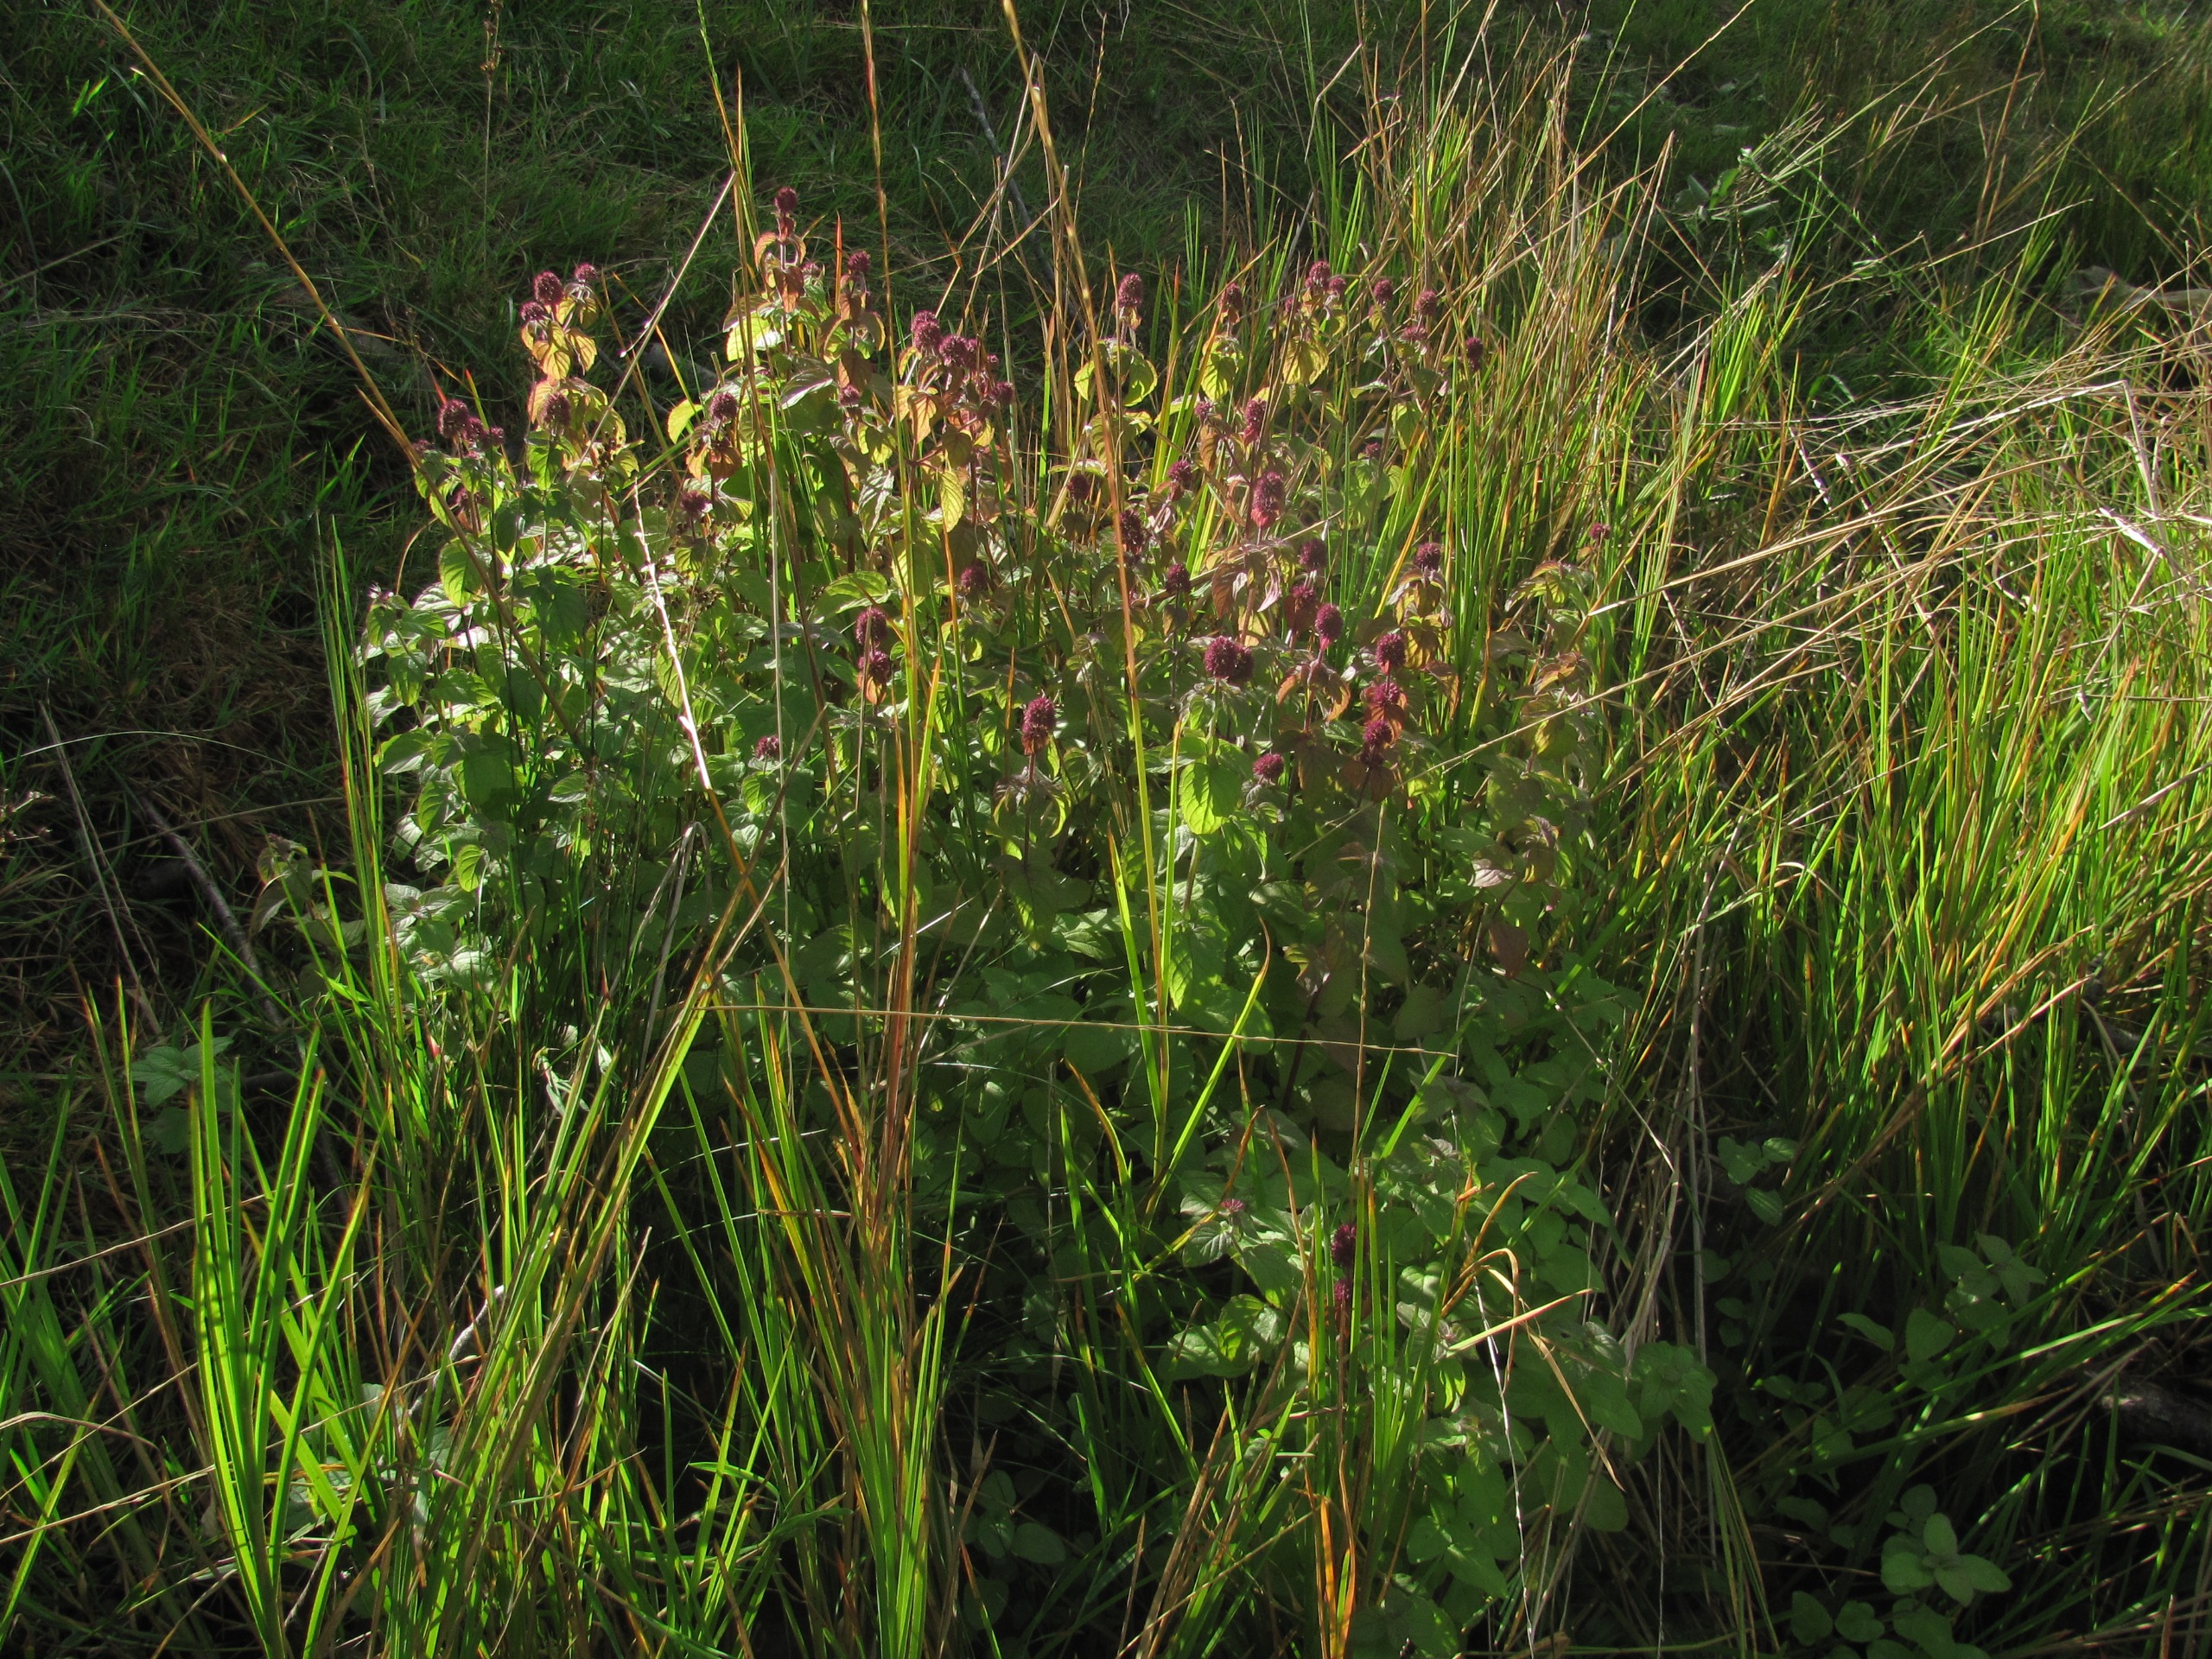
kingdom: Plantae
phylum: Tracheophyta
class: Magnoliopsida
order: Lamiales
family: Lamiaceae
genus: Mentha
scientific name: Mentha aquatica
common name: Vand-mynte
